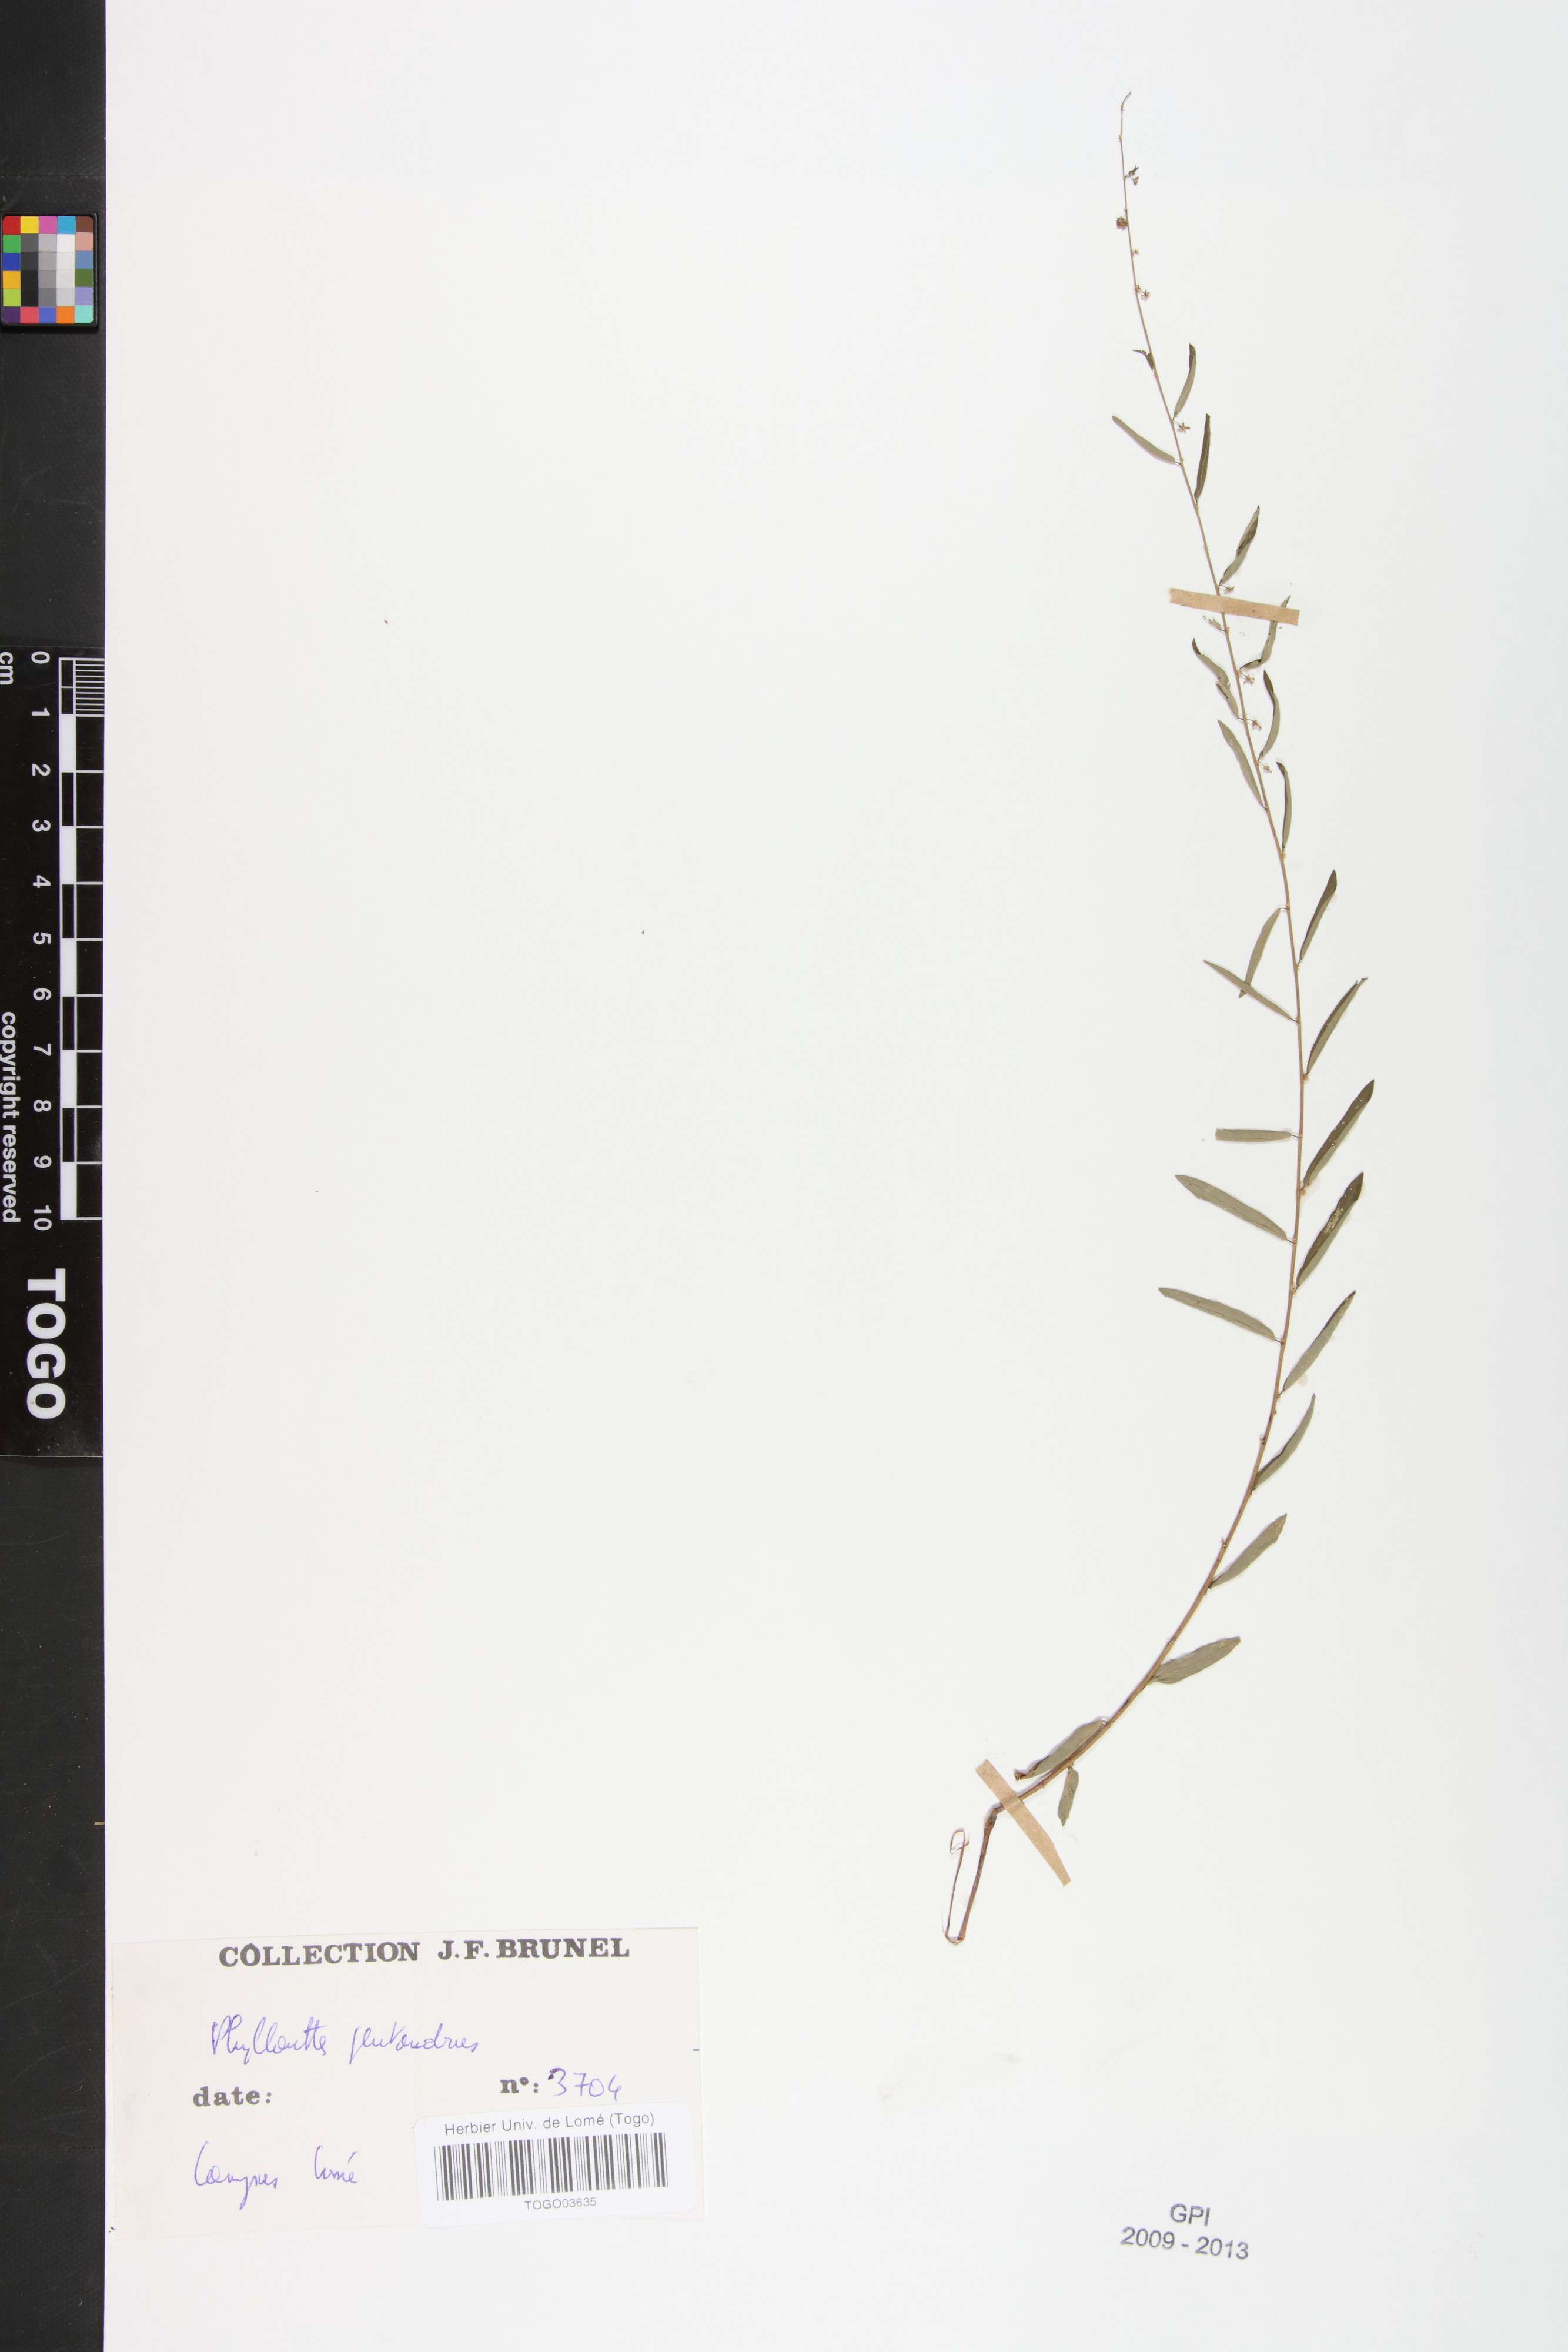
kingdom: Plantae
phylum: Tracheophyta
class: Magnoliopsida
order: Malpighiales
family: Phyllanthaceae
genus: Phyllanthus
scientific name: Phyllanthus pentandrus
